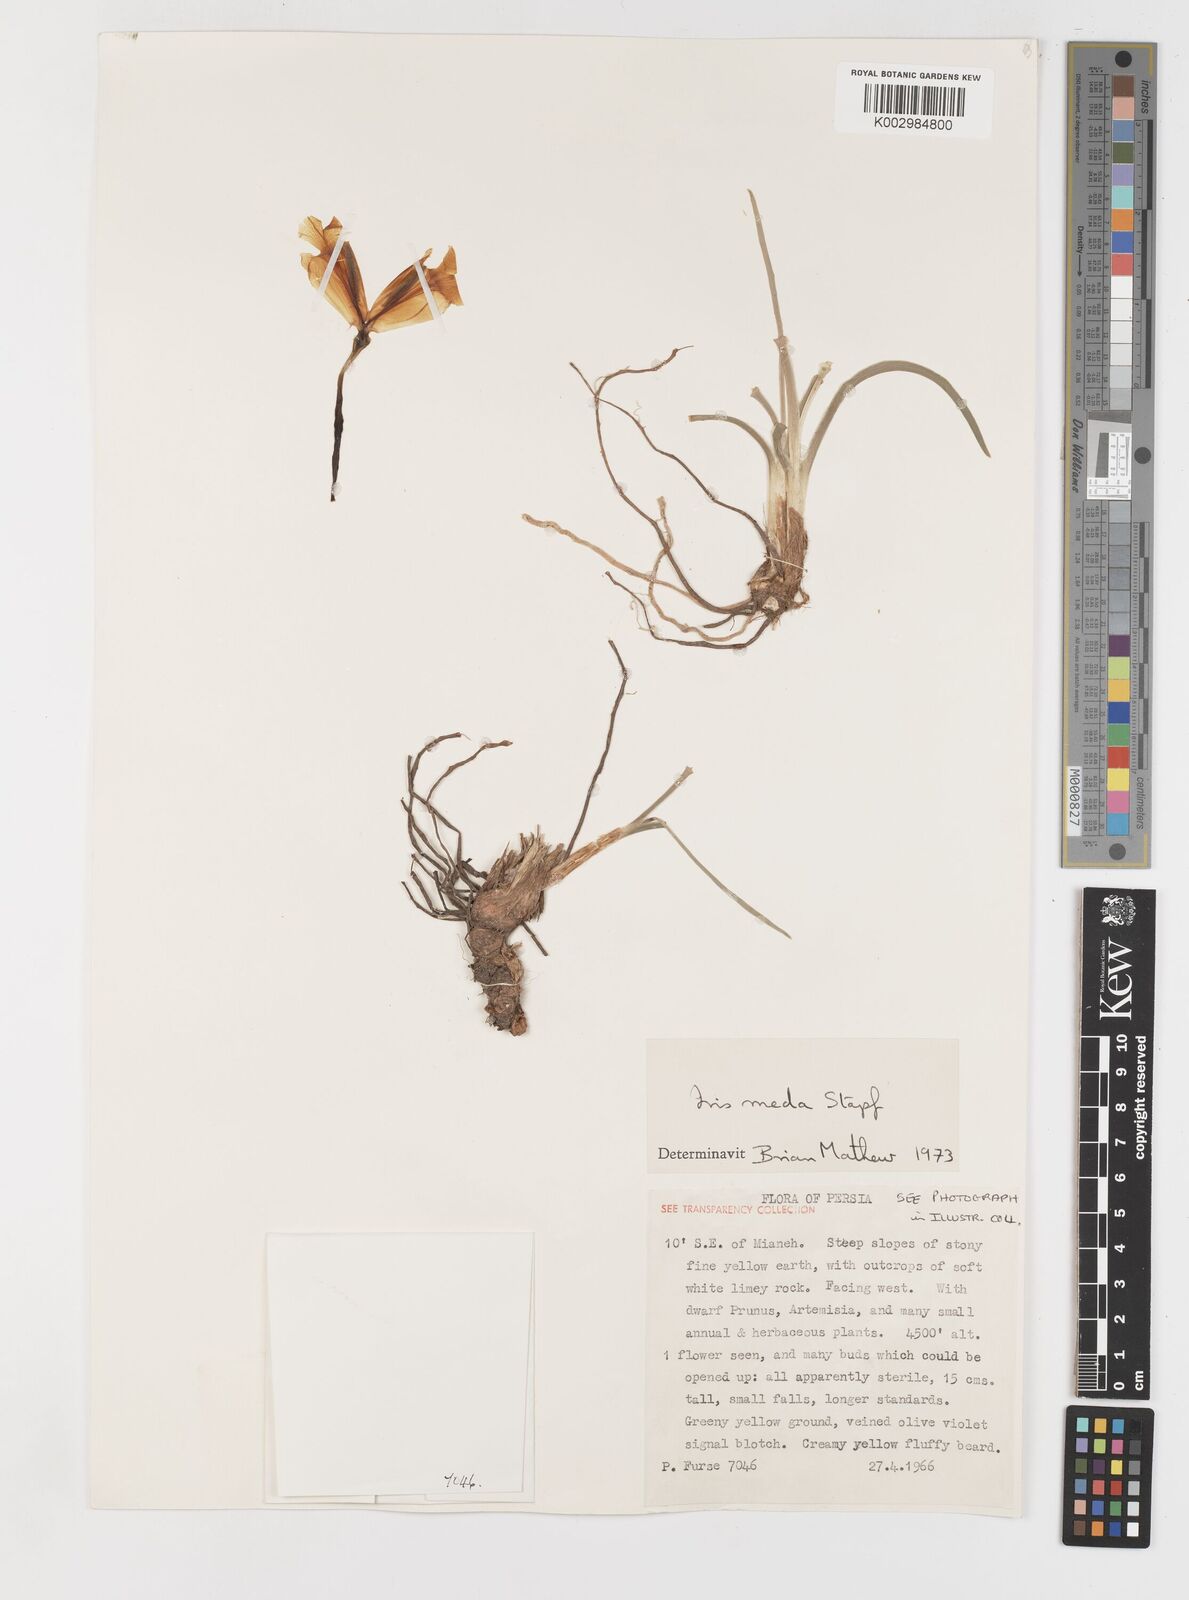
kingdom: Plantae
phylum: Tracheophyta
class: Liliopsida
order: Asparagales
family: Iridaceae
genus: Iris
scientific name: Iris meda
